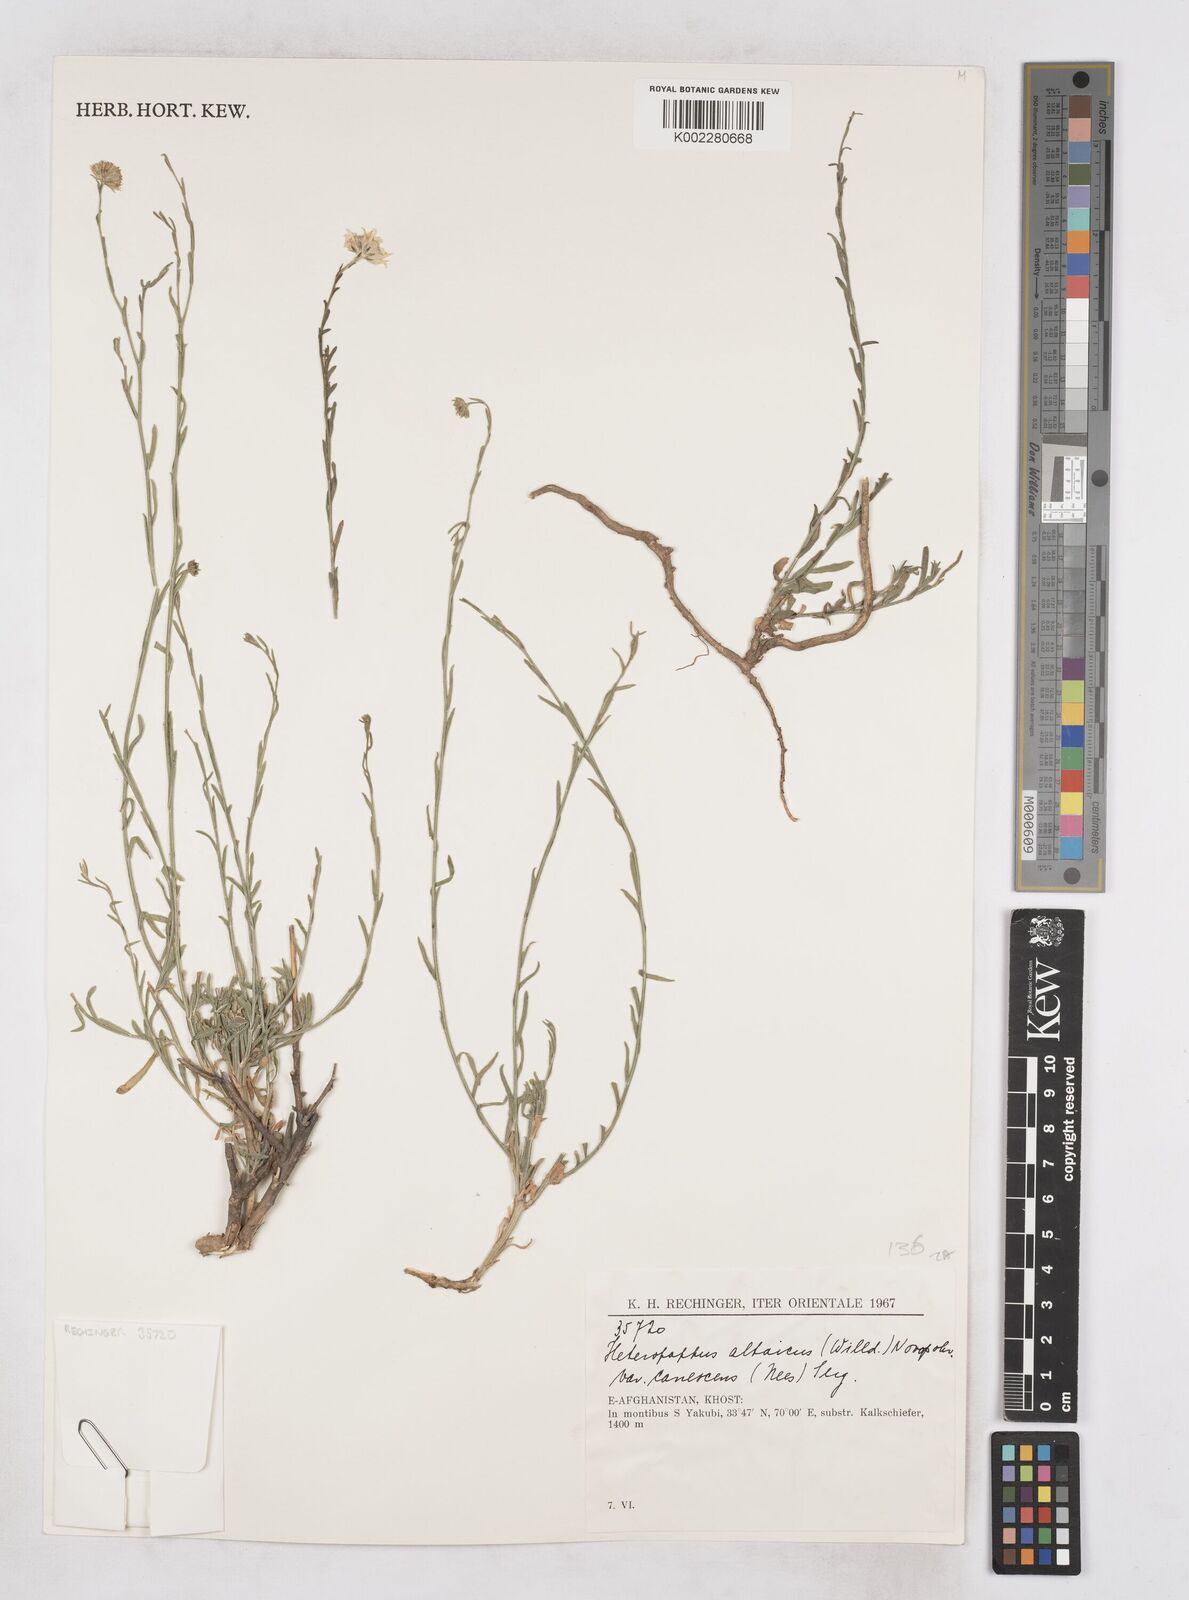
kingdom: Plantae
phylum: Tracheophyta
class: Magnoliopsida
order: Asterales
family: Asteraceae
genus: Heteropappus
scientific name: Heteropappus altaicus
